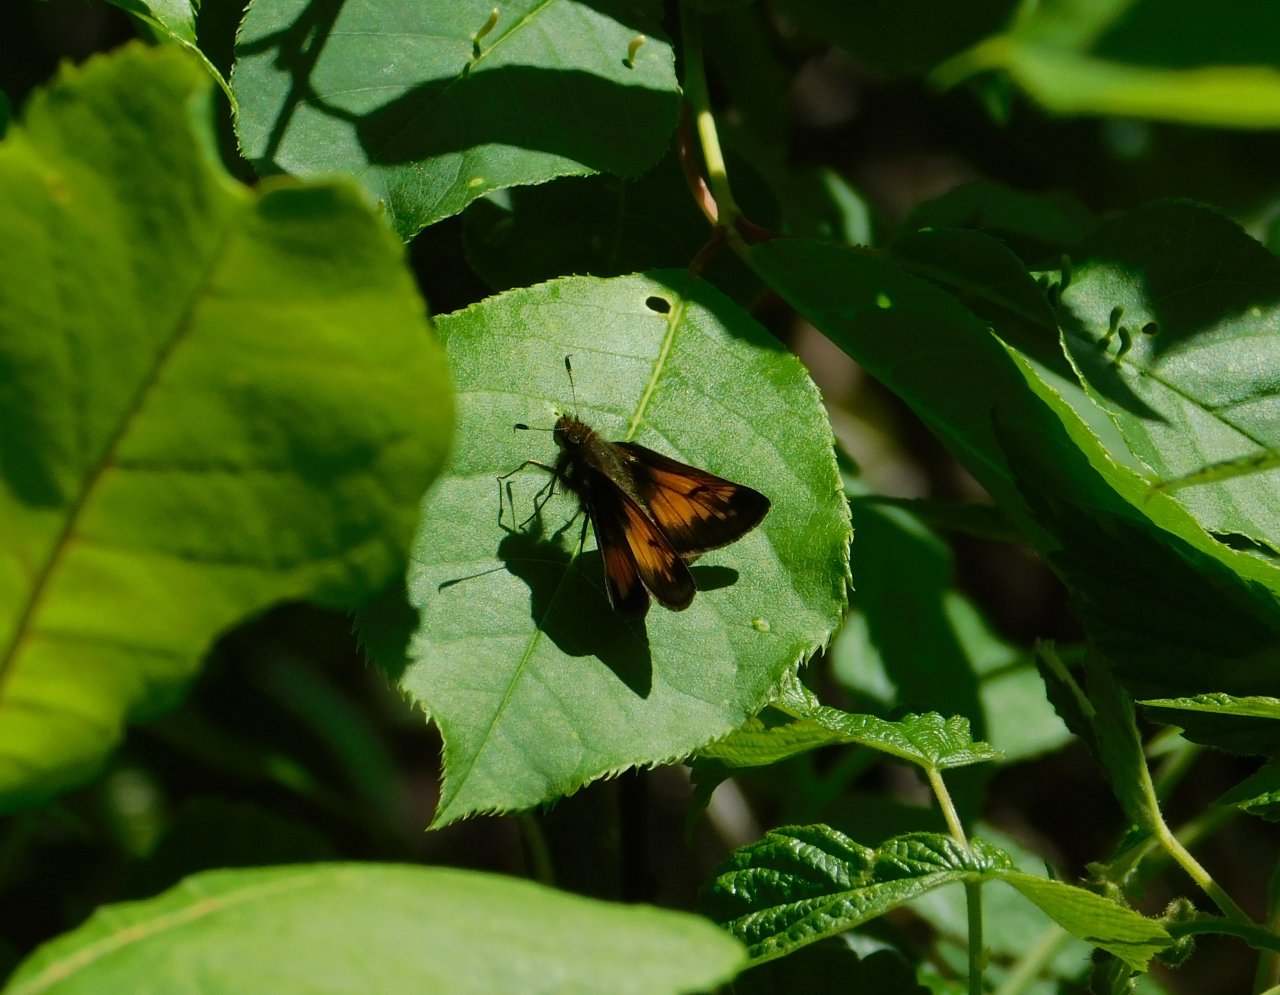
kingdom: Animalia
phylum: Arthropoda
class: Insecta
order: Lepidoptera
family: Hesperiidae
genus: Lon
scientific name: Lon hobomok
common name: Hobomok Skipper
